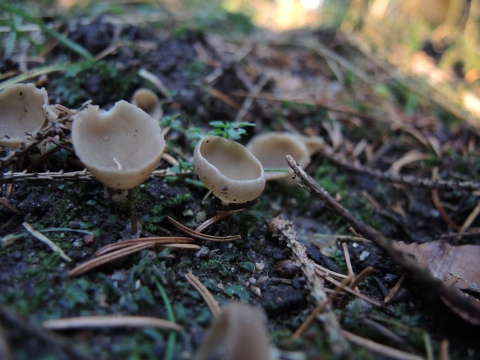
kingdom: Fungi
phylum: Ascomycota
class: Pezizomycetes
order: Pezizales
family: Helvellaceae
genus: Dissingia
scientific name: Dissingia confusa
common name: gran-foldhat
